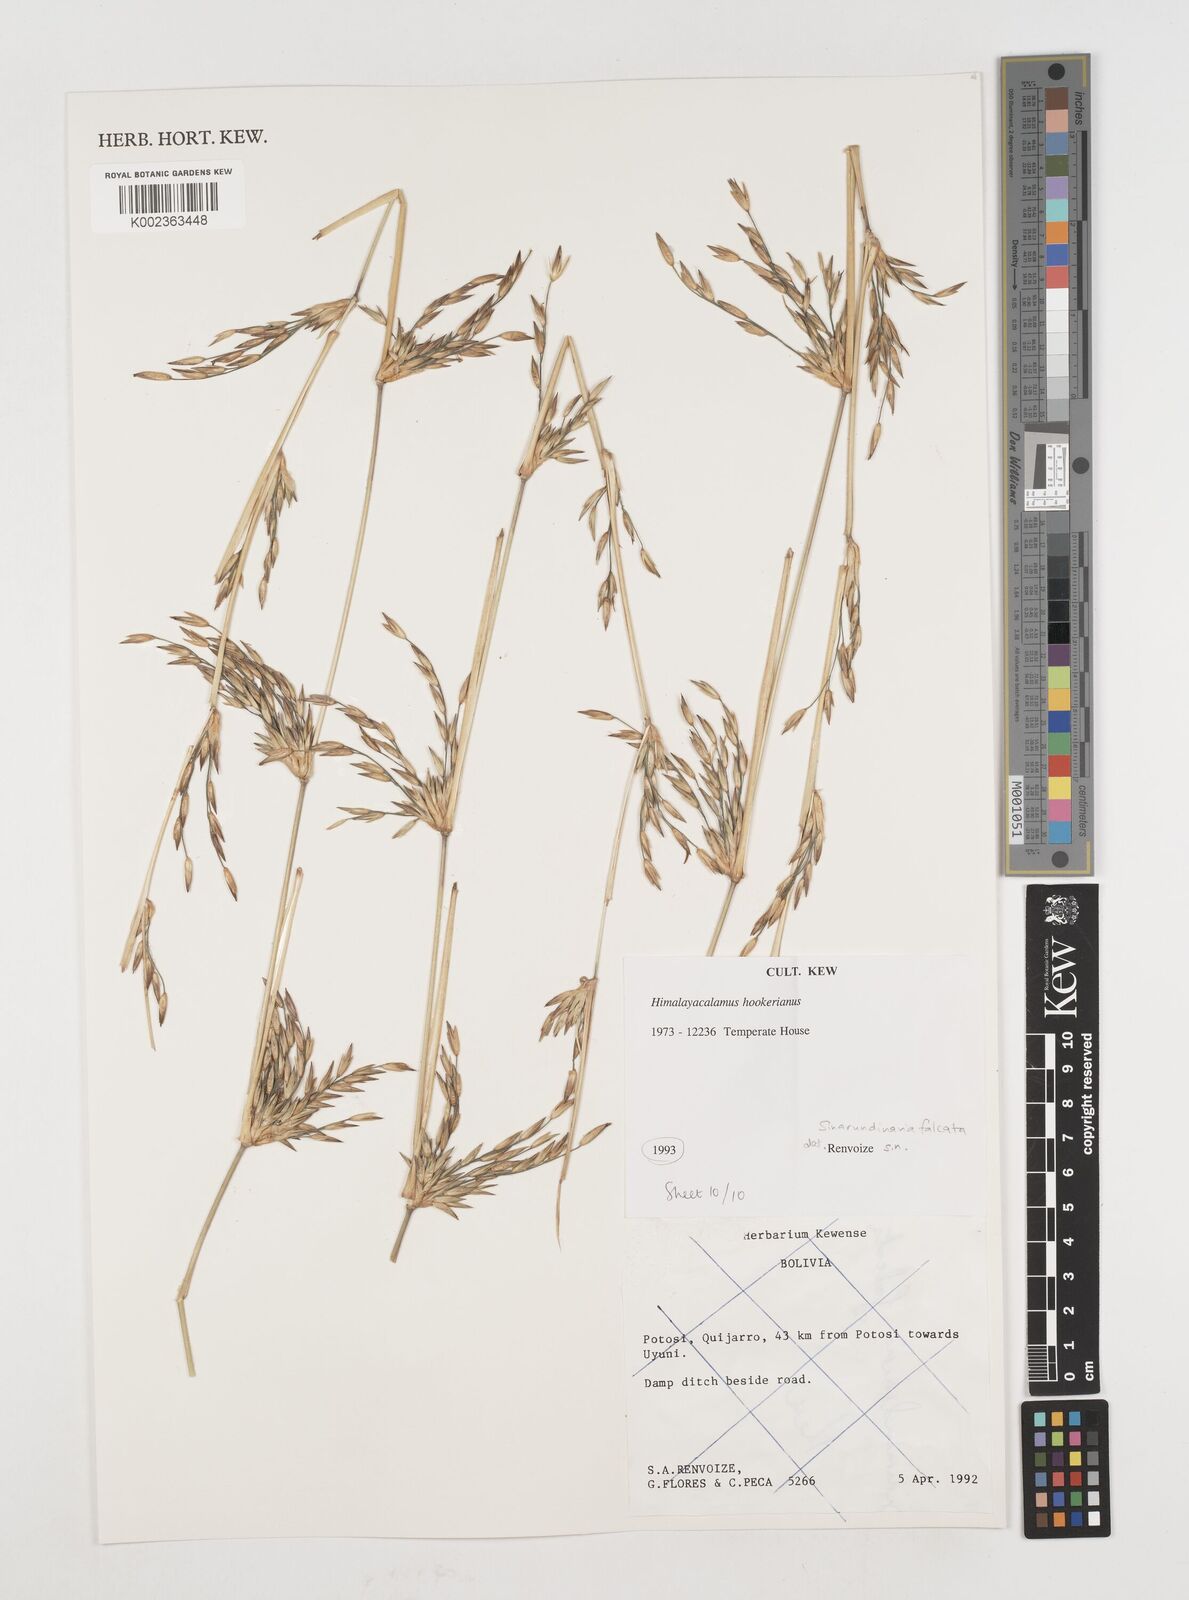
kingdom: Plantae
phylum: Tracheophyta
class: Liliopsida
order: Poales
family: Poaceae
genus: Himalayacalamus
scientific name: Himalayacalamus hookerianus
